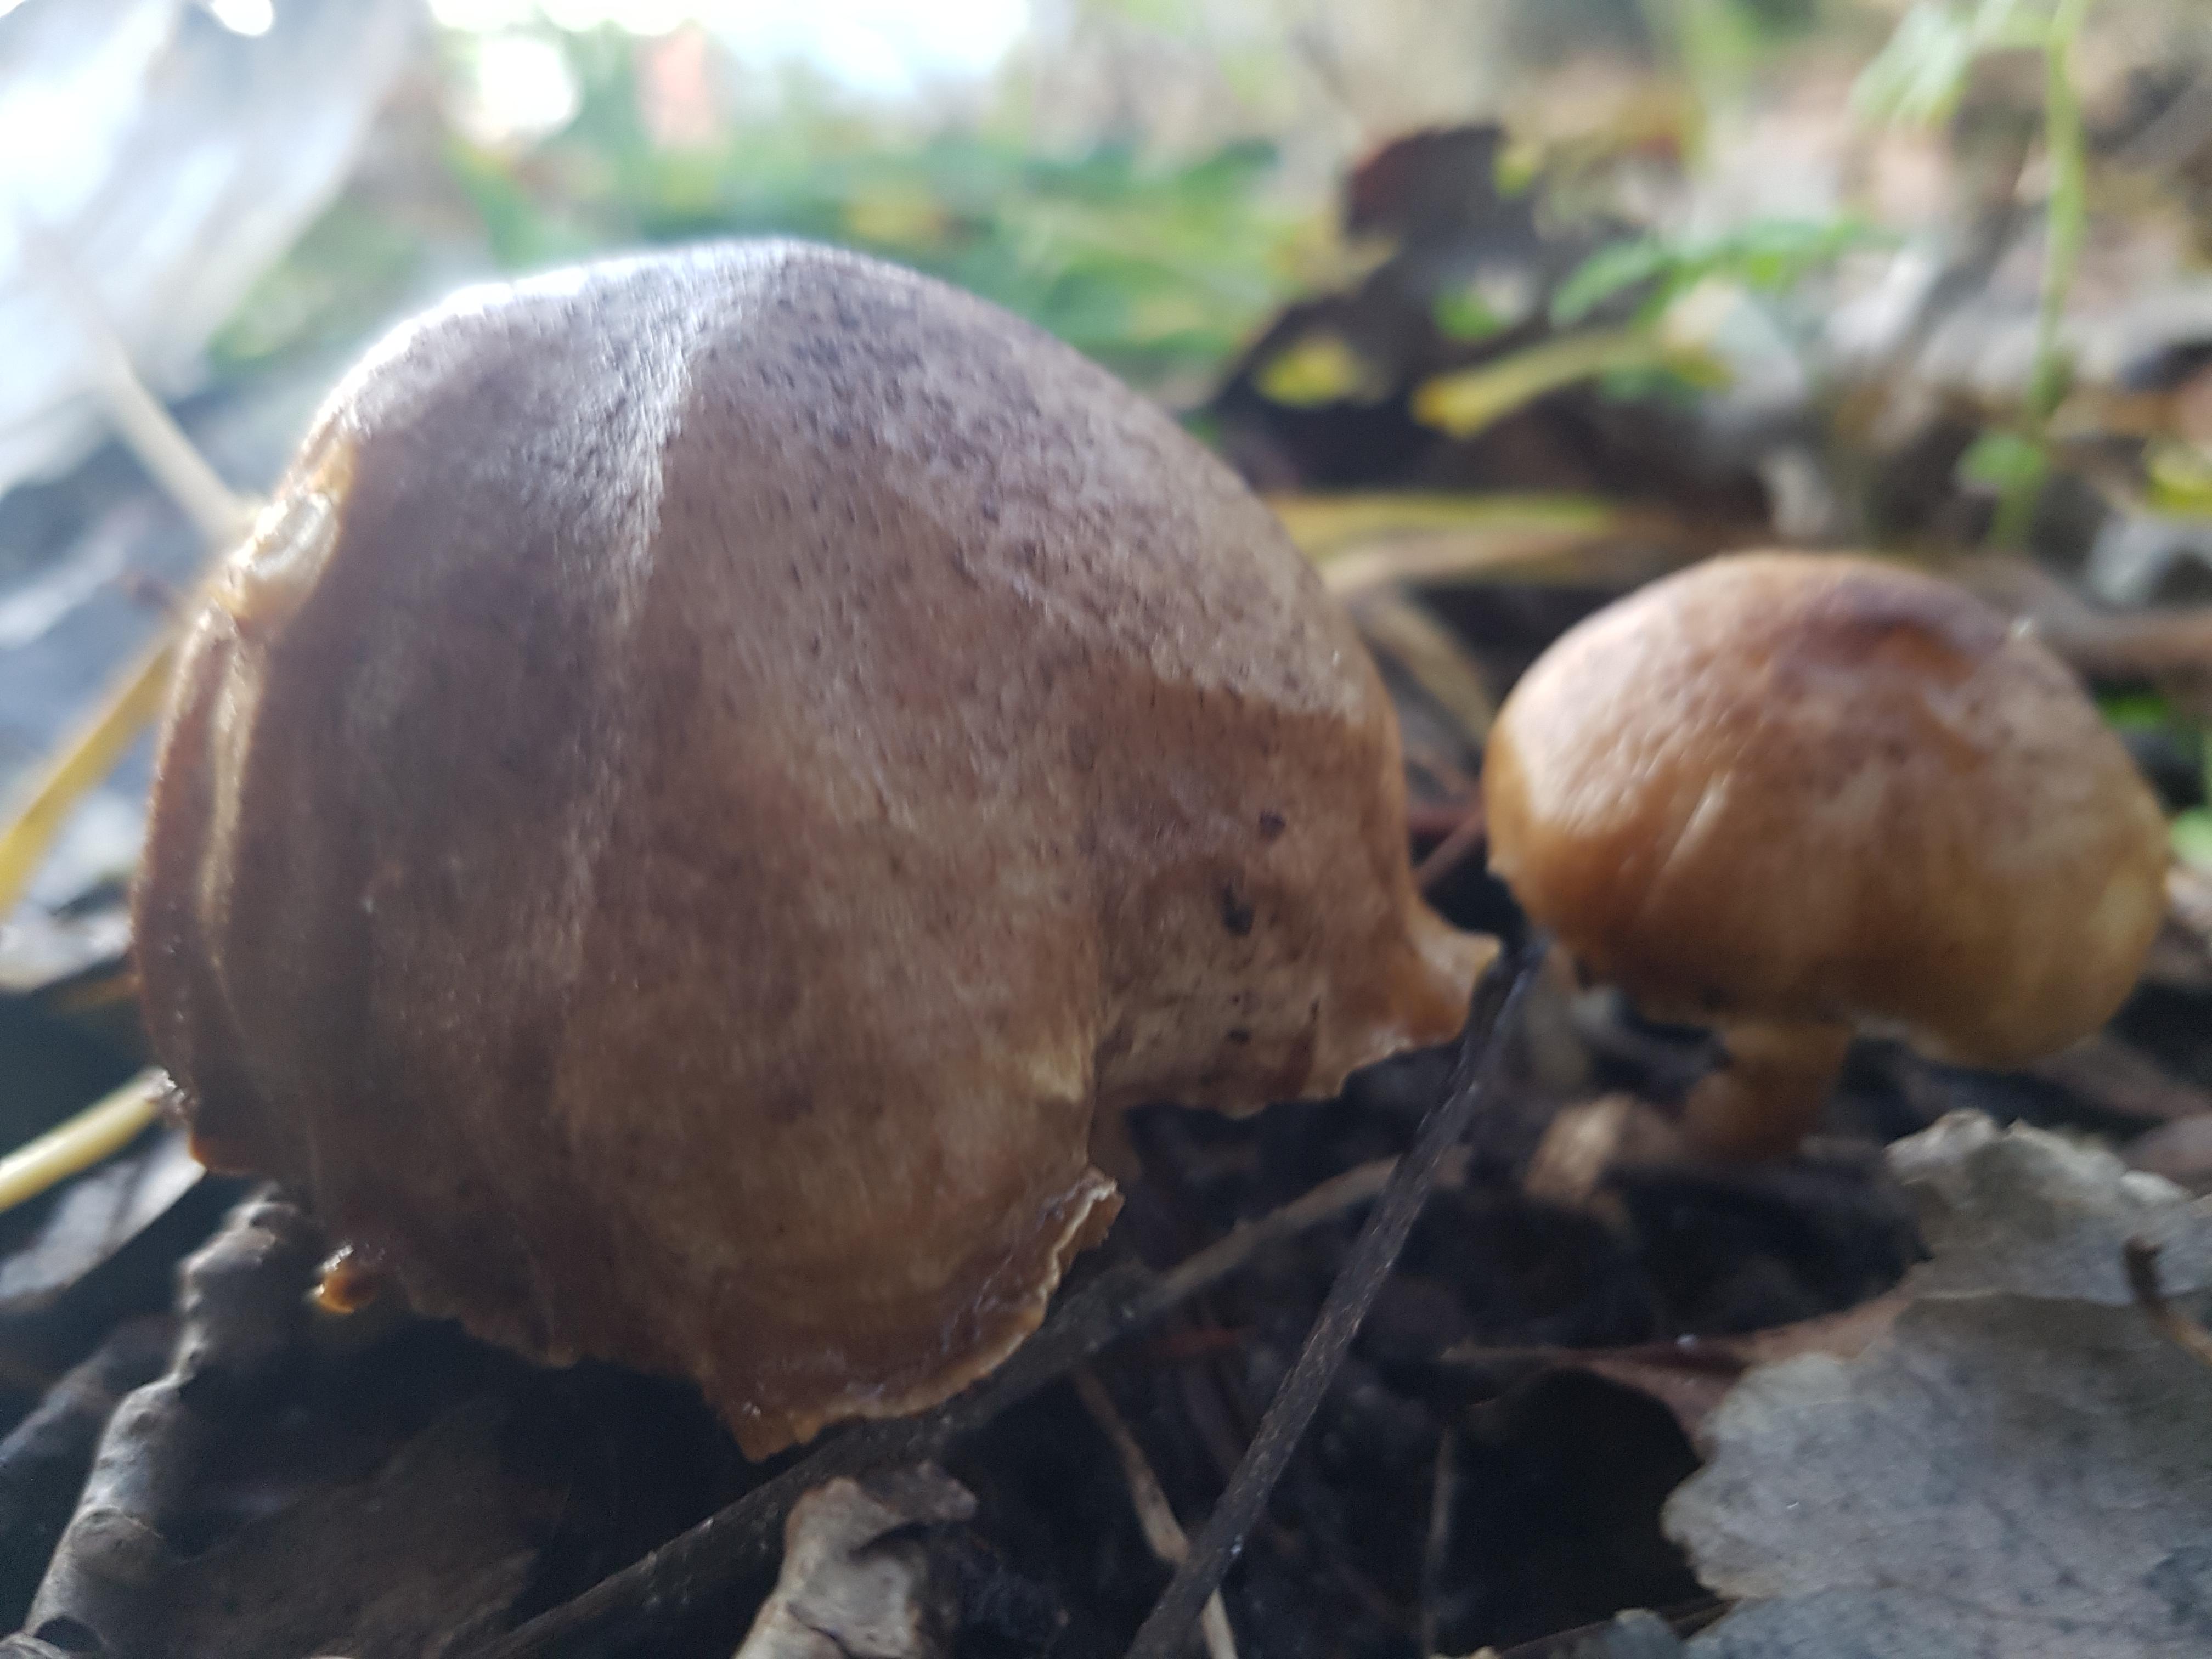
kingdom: Fungi
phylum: Basidiomycota
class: Agaricomycetes
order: Agaricales
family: Tricholomataceae
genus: Tricholoma
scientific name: Tricholoma
